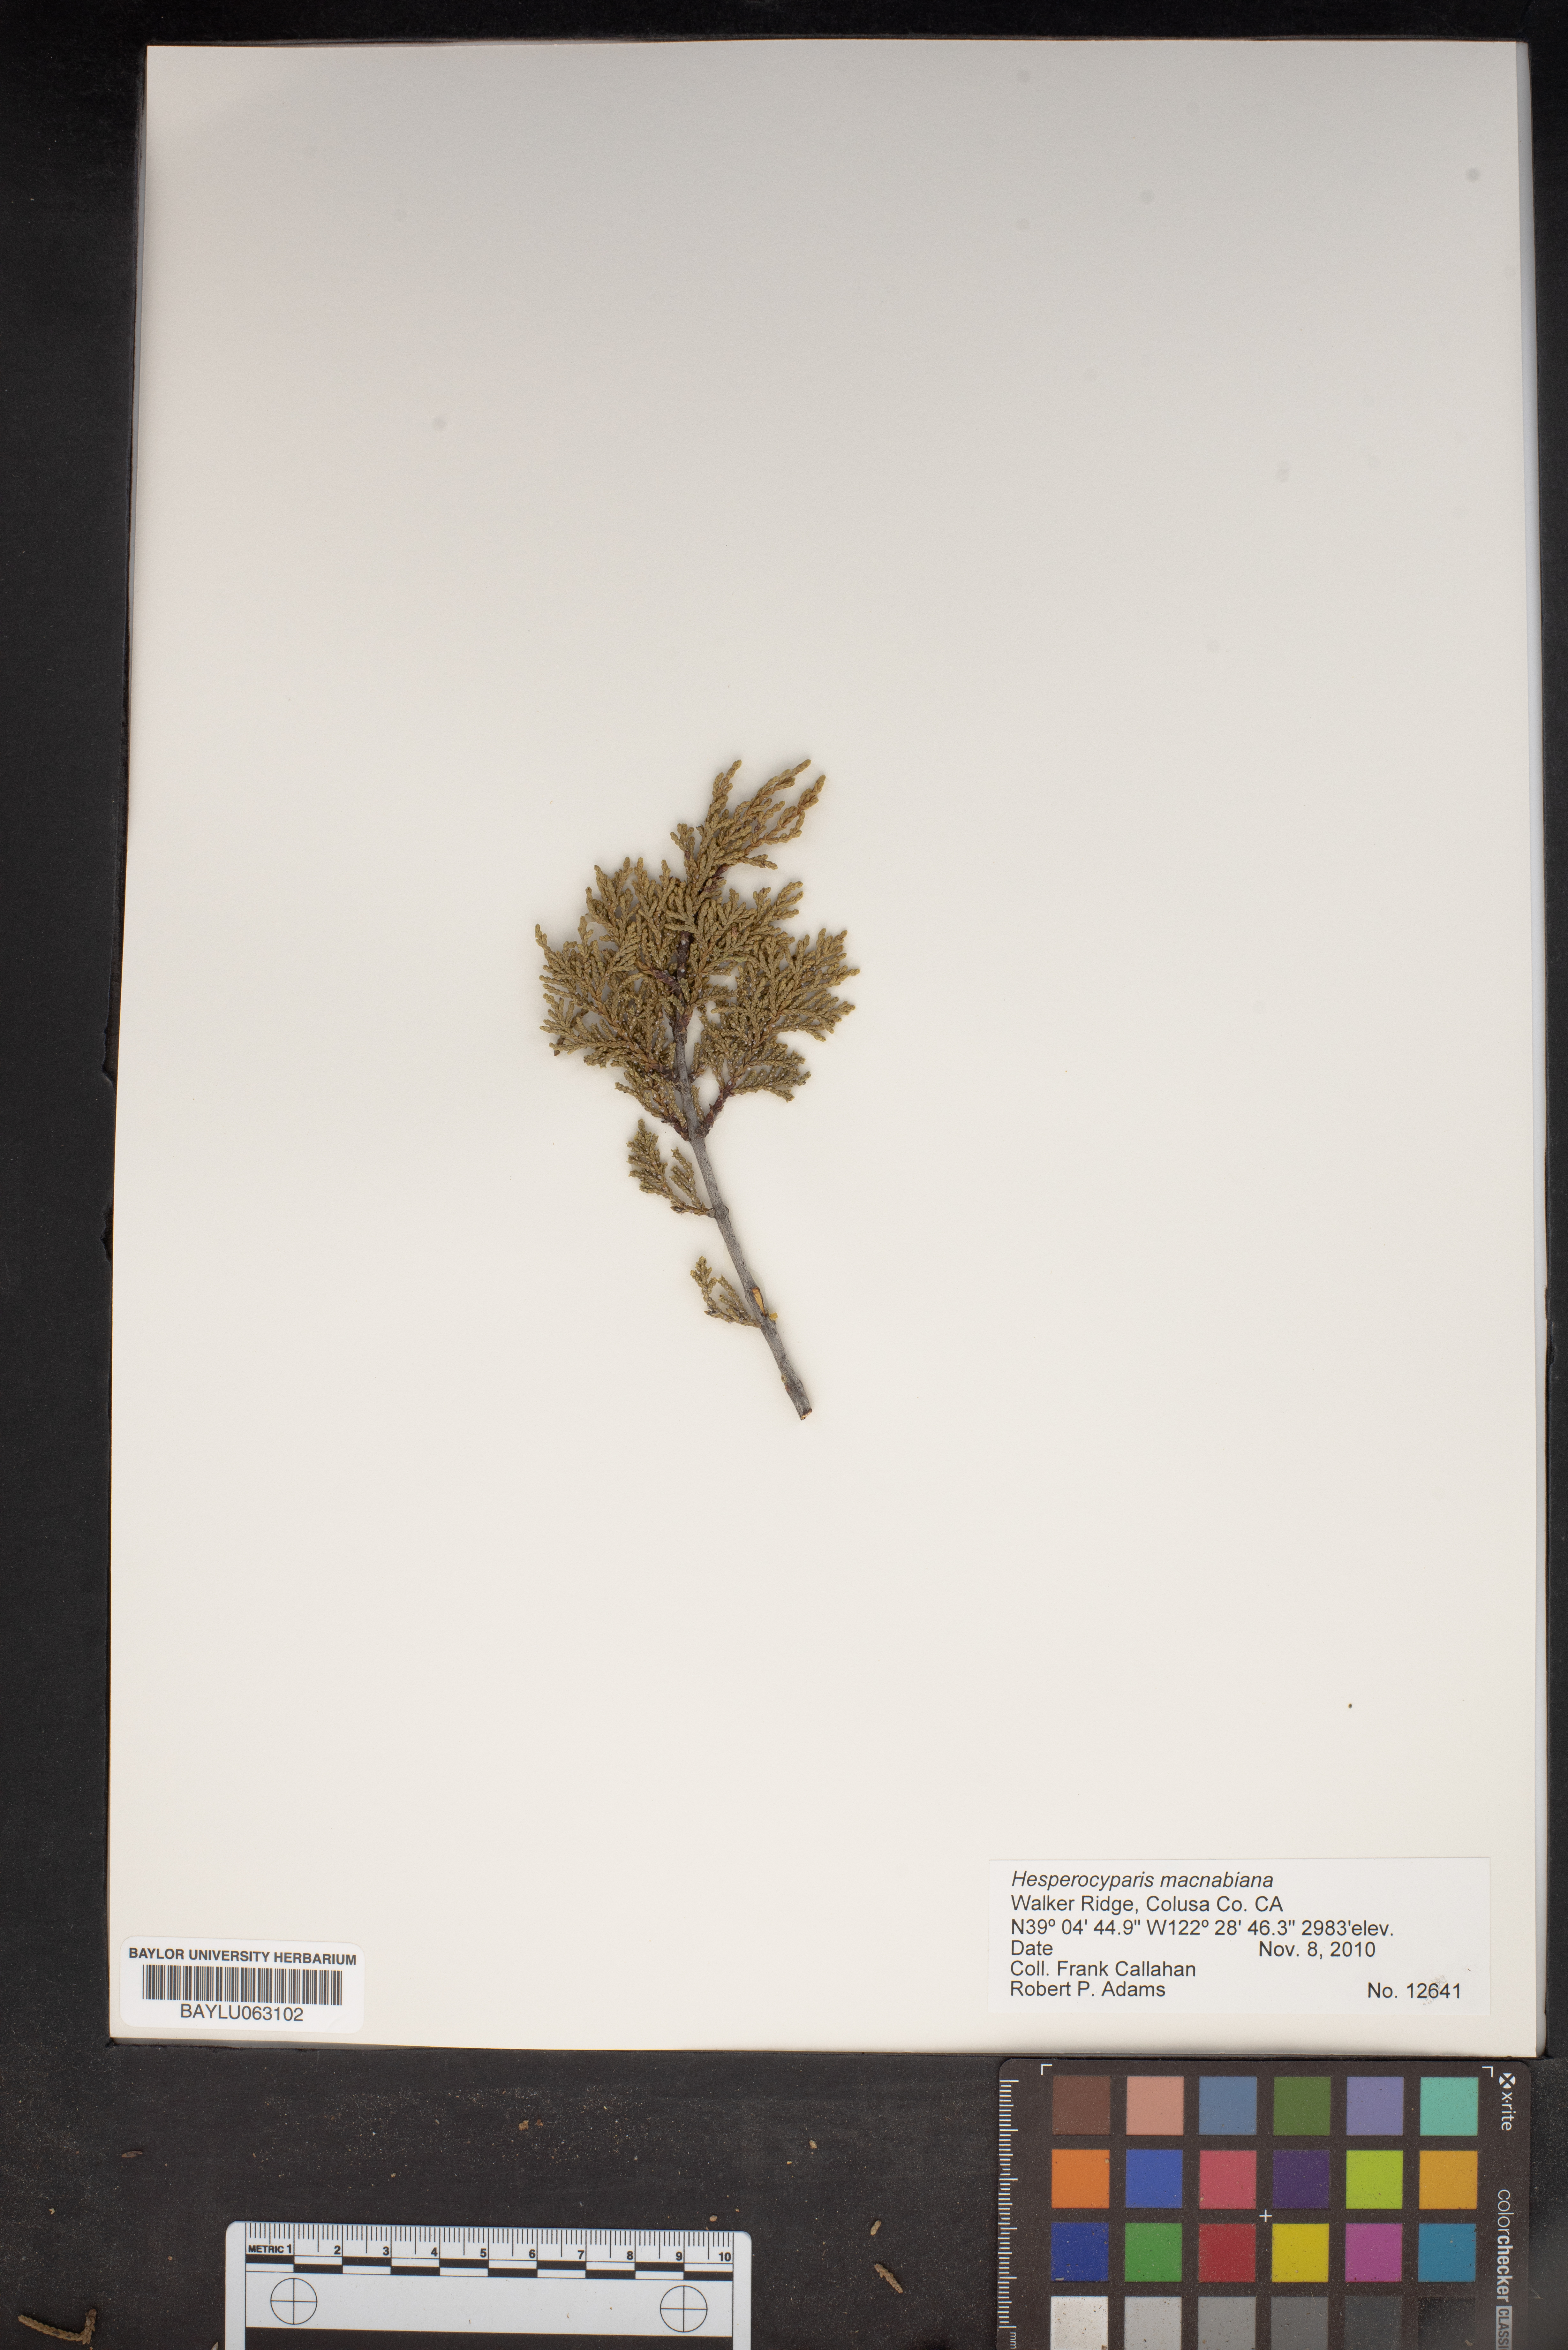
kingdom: Plantae
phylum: Tracheophyta
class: Pinopsida
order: Pinales
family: Cupressaceae
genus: Cupressus
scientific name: Cupressus macnabiana bis
